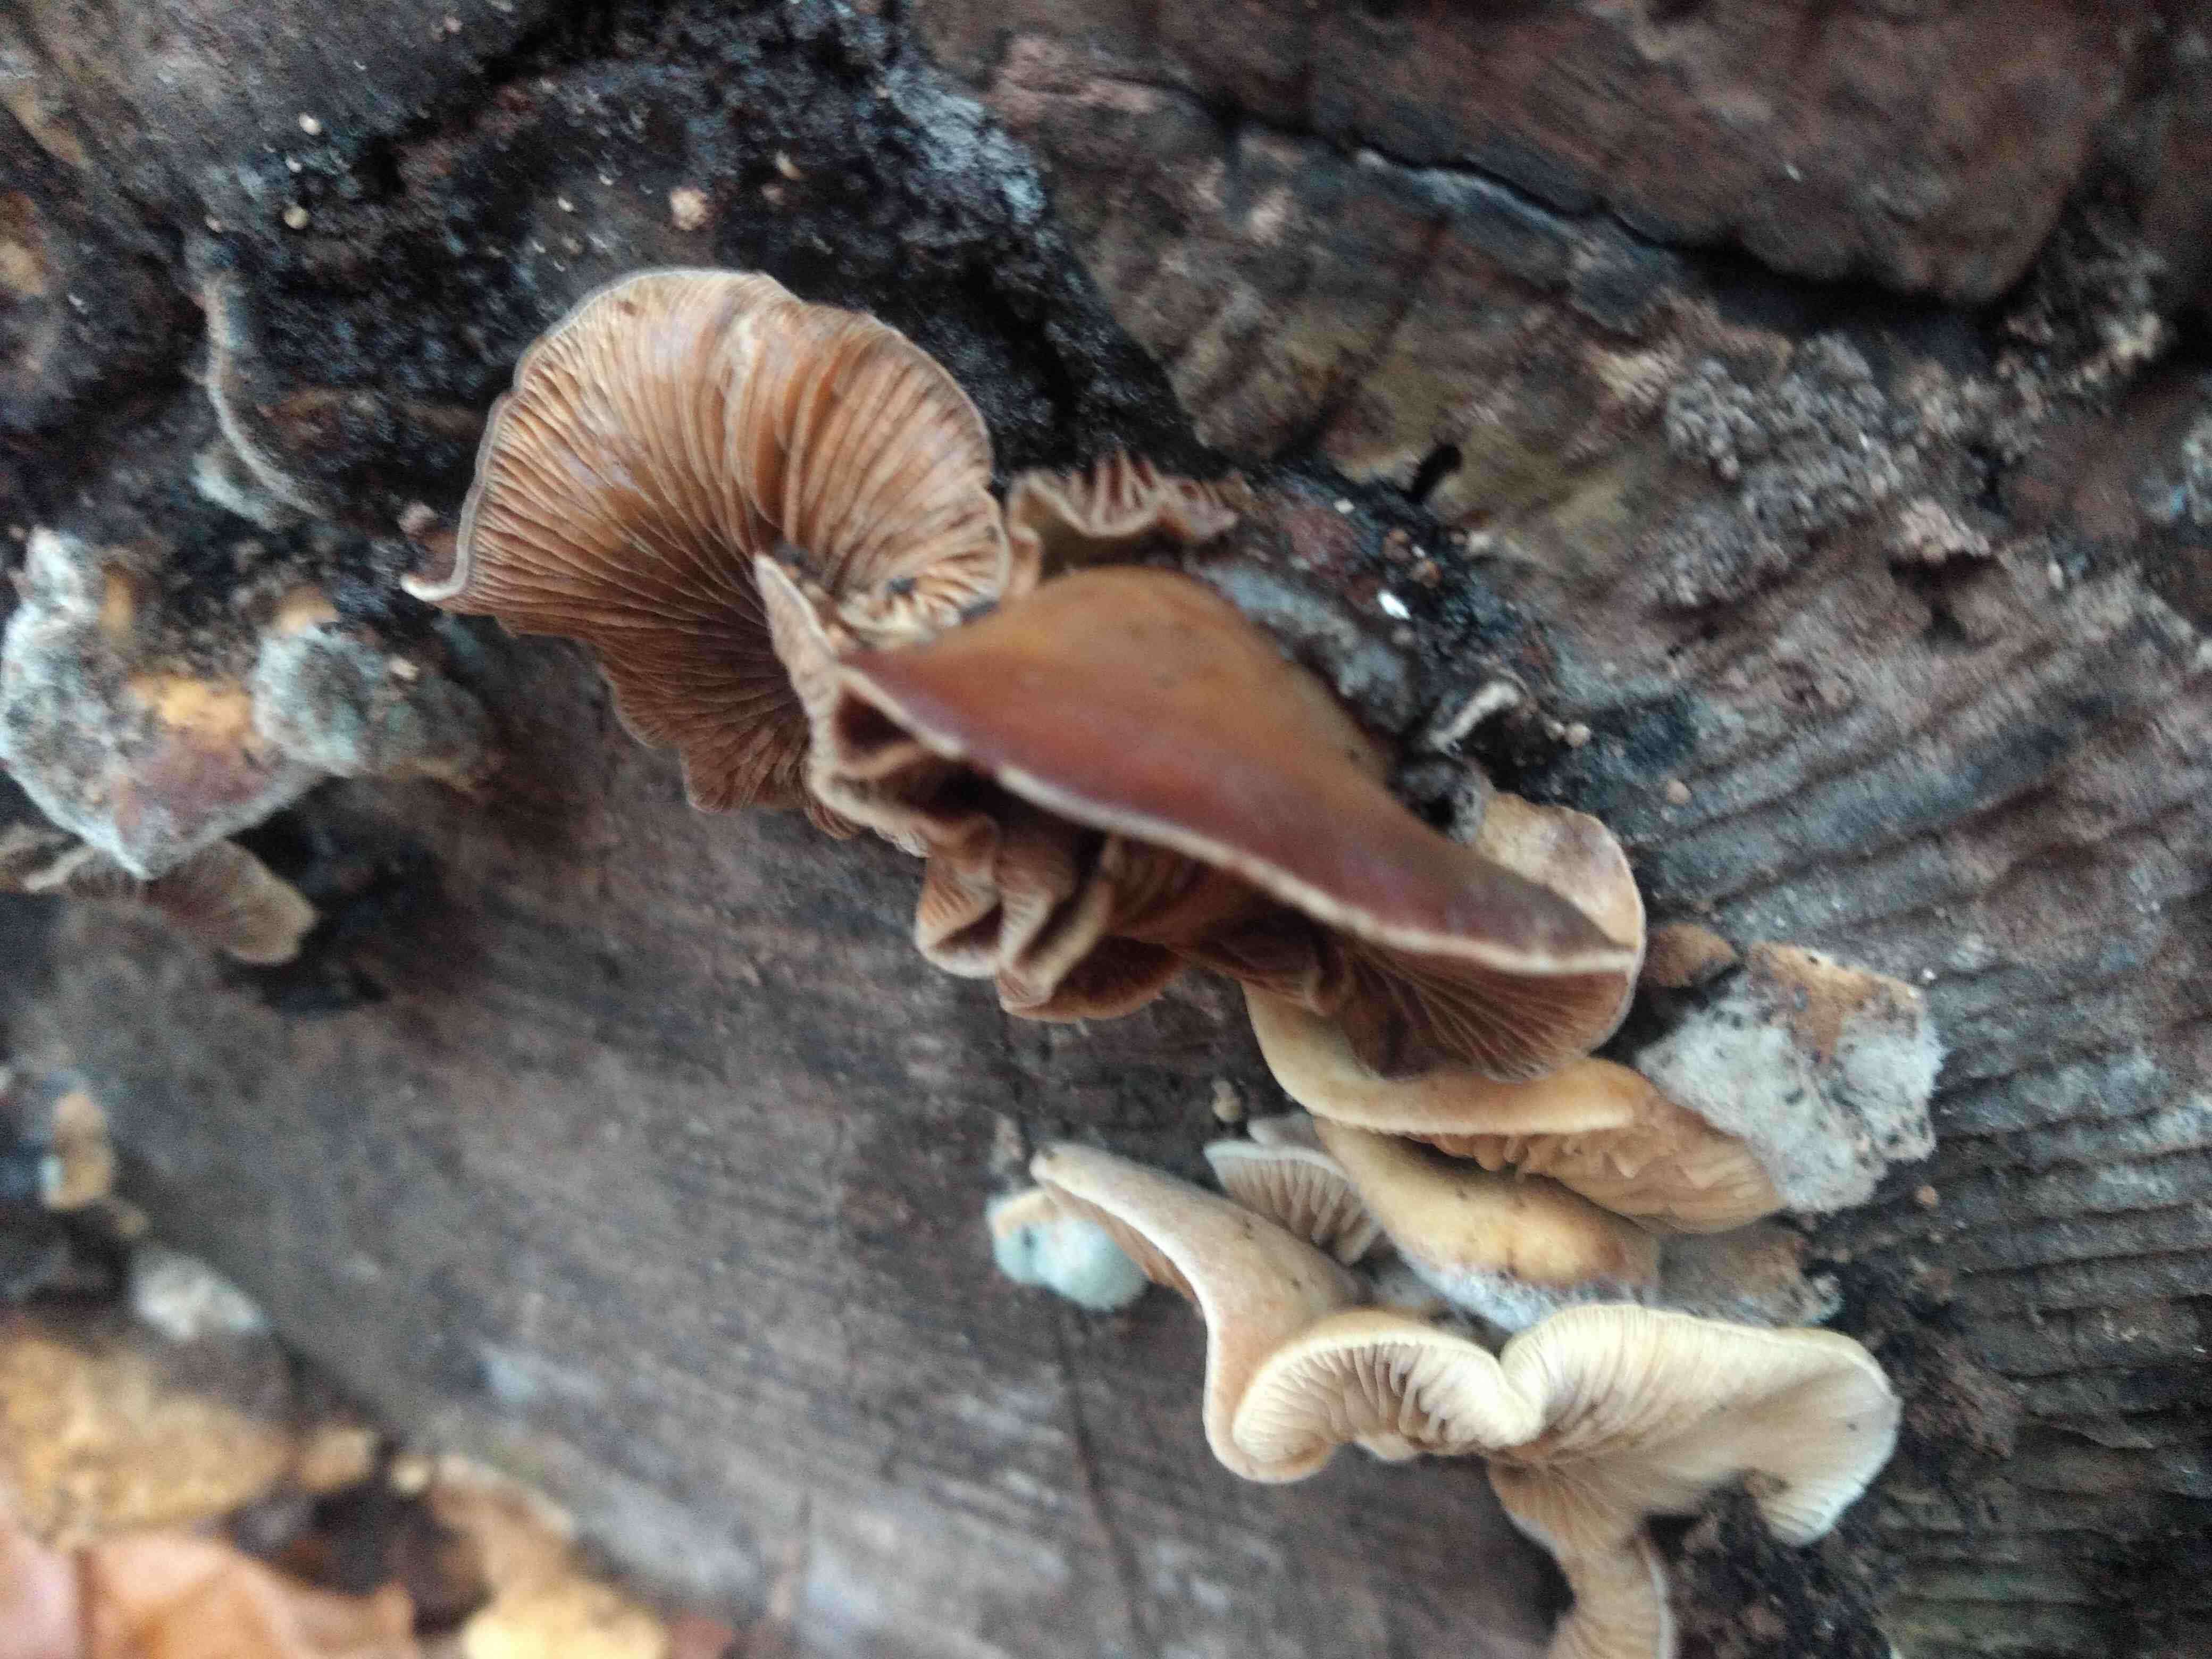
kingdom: Fungi
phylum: Basidiomycota
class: Agaricomycetes
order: Agaricales
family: Crepidotaceae
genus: Crepidotus
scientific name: Crepidotus mollis
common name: blød muslingesvamp
